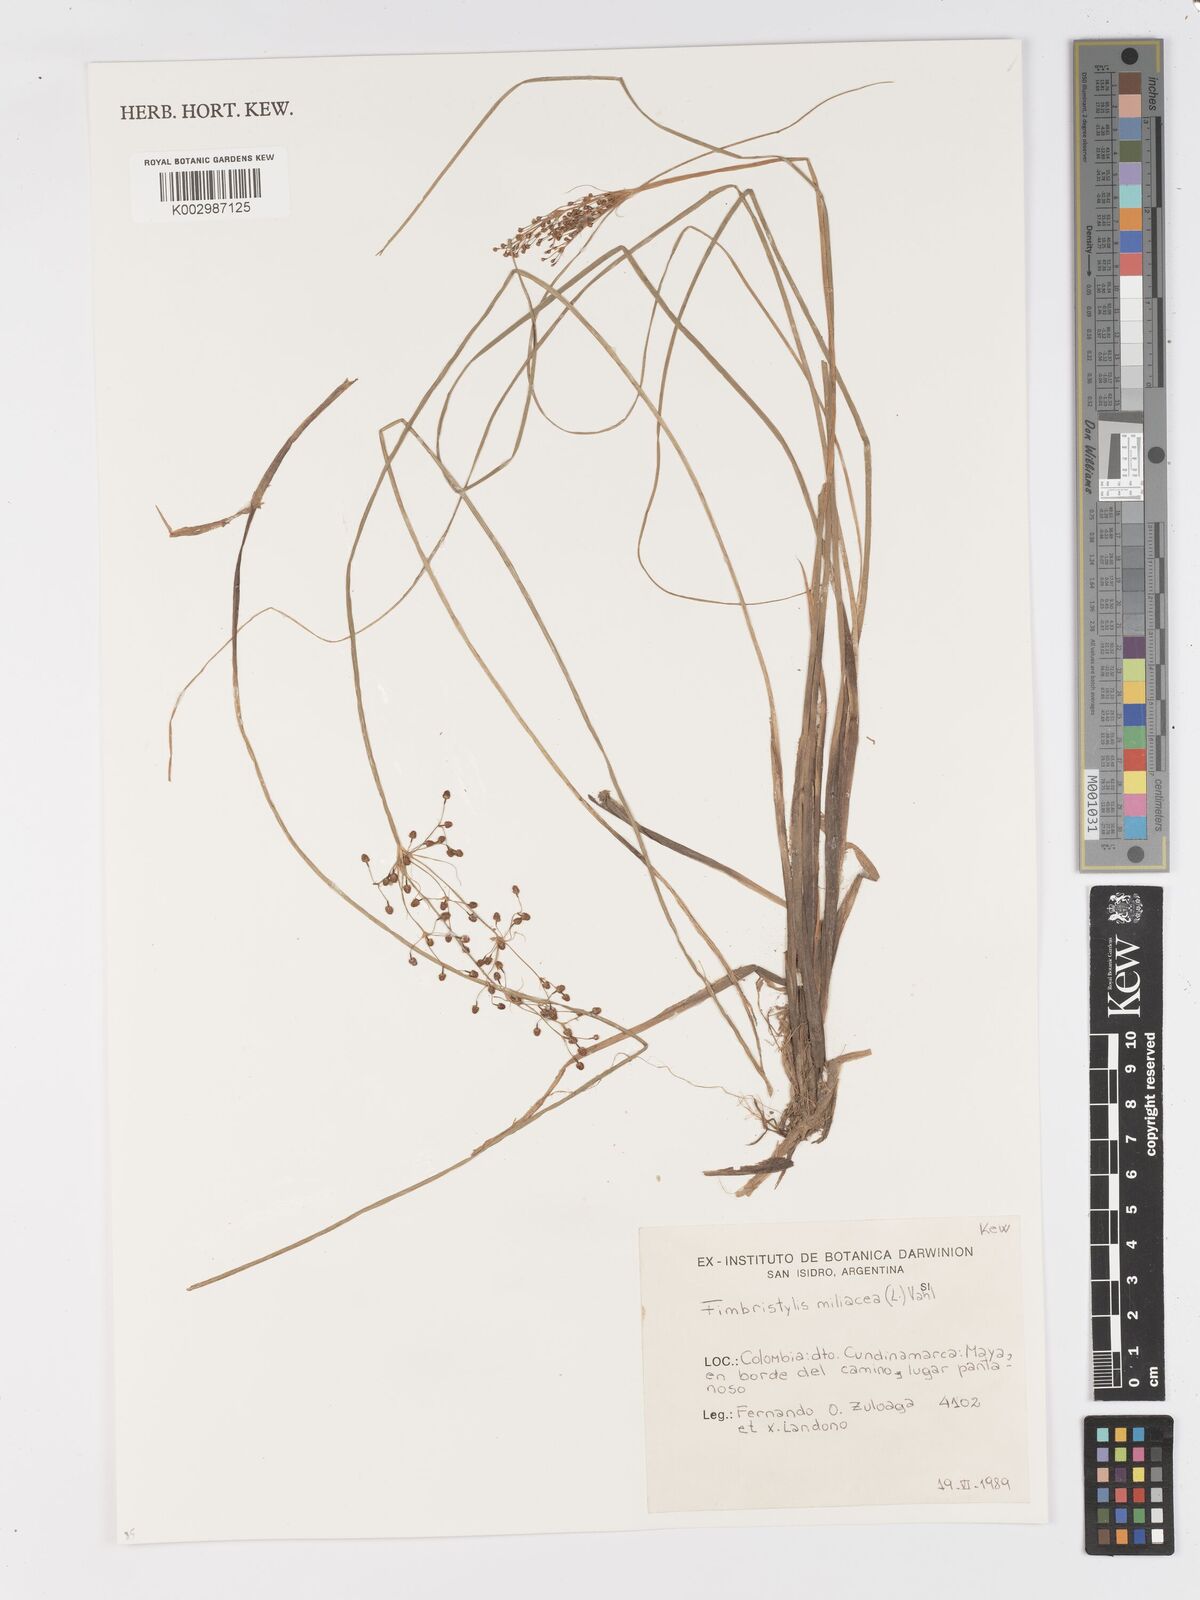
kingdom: Plantae
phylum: Tracheophyta
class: Liliopsida
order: Poales
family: Cyperaceae
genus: Fimbristylis
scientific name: Fimbristylis quinquangularis
